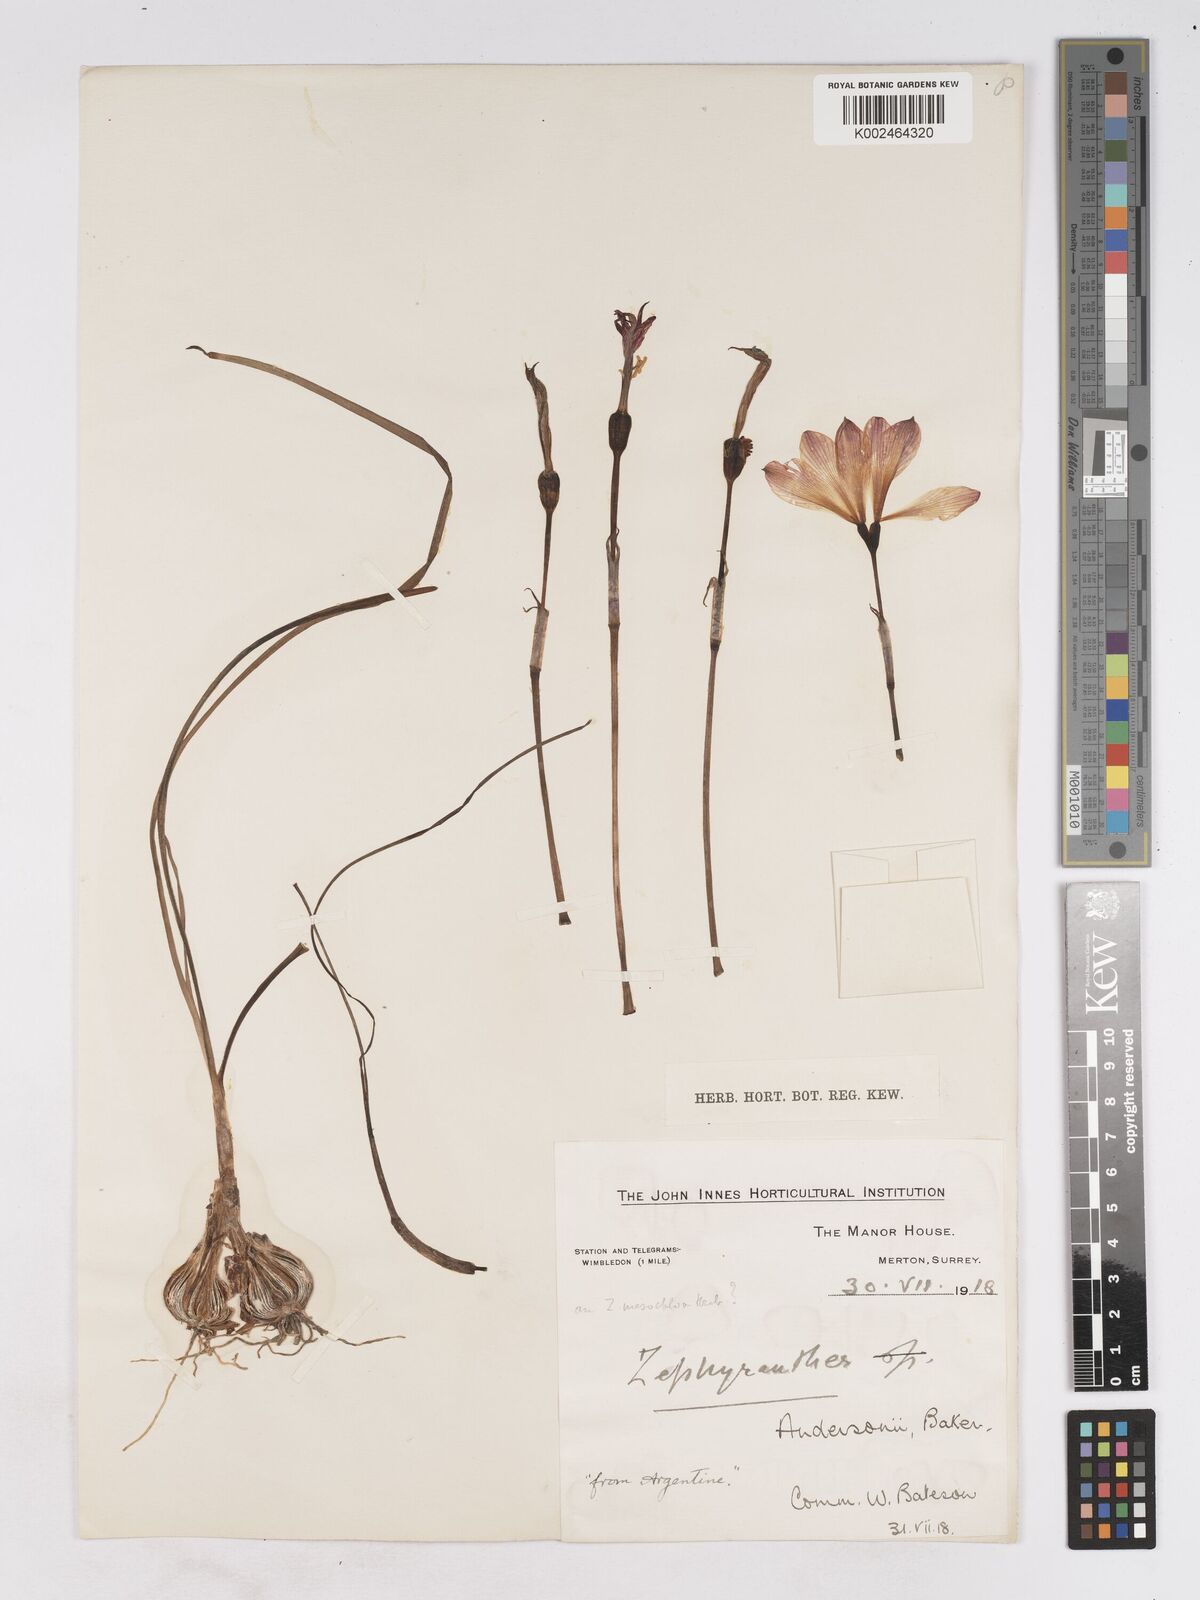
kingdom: Plantae
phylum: Tracheophyta
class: Liliopsida
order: Asparagales
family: Amaryllidaceae
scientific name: Amaryllidaceae
